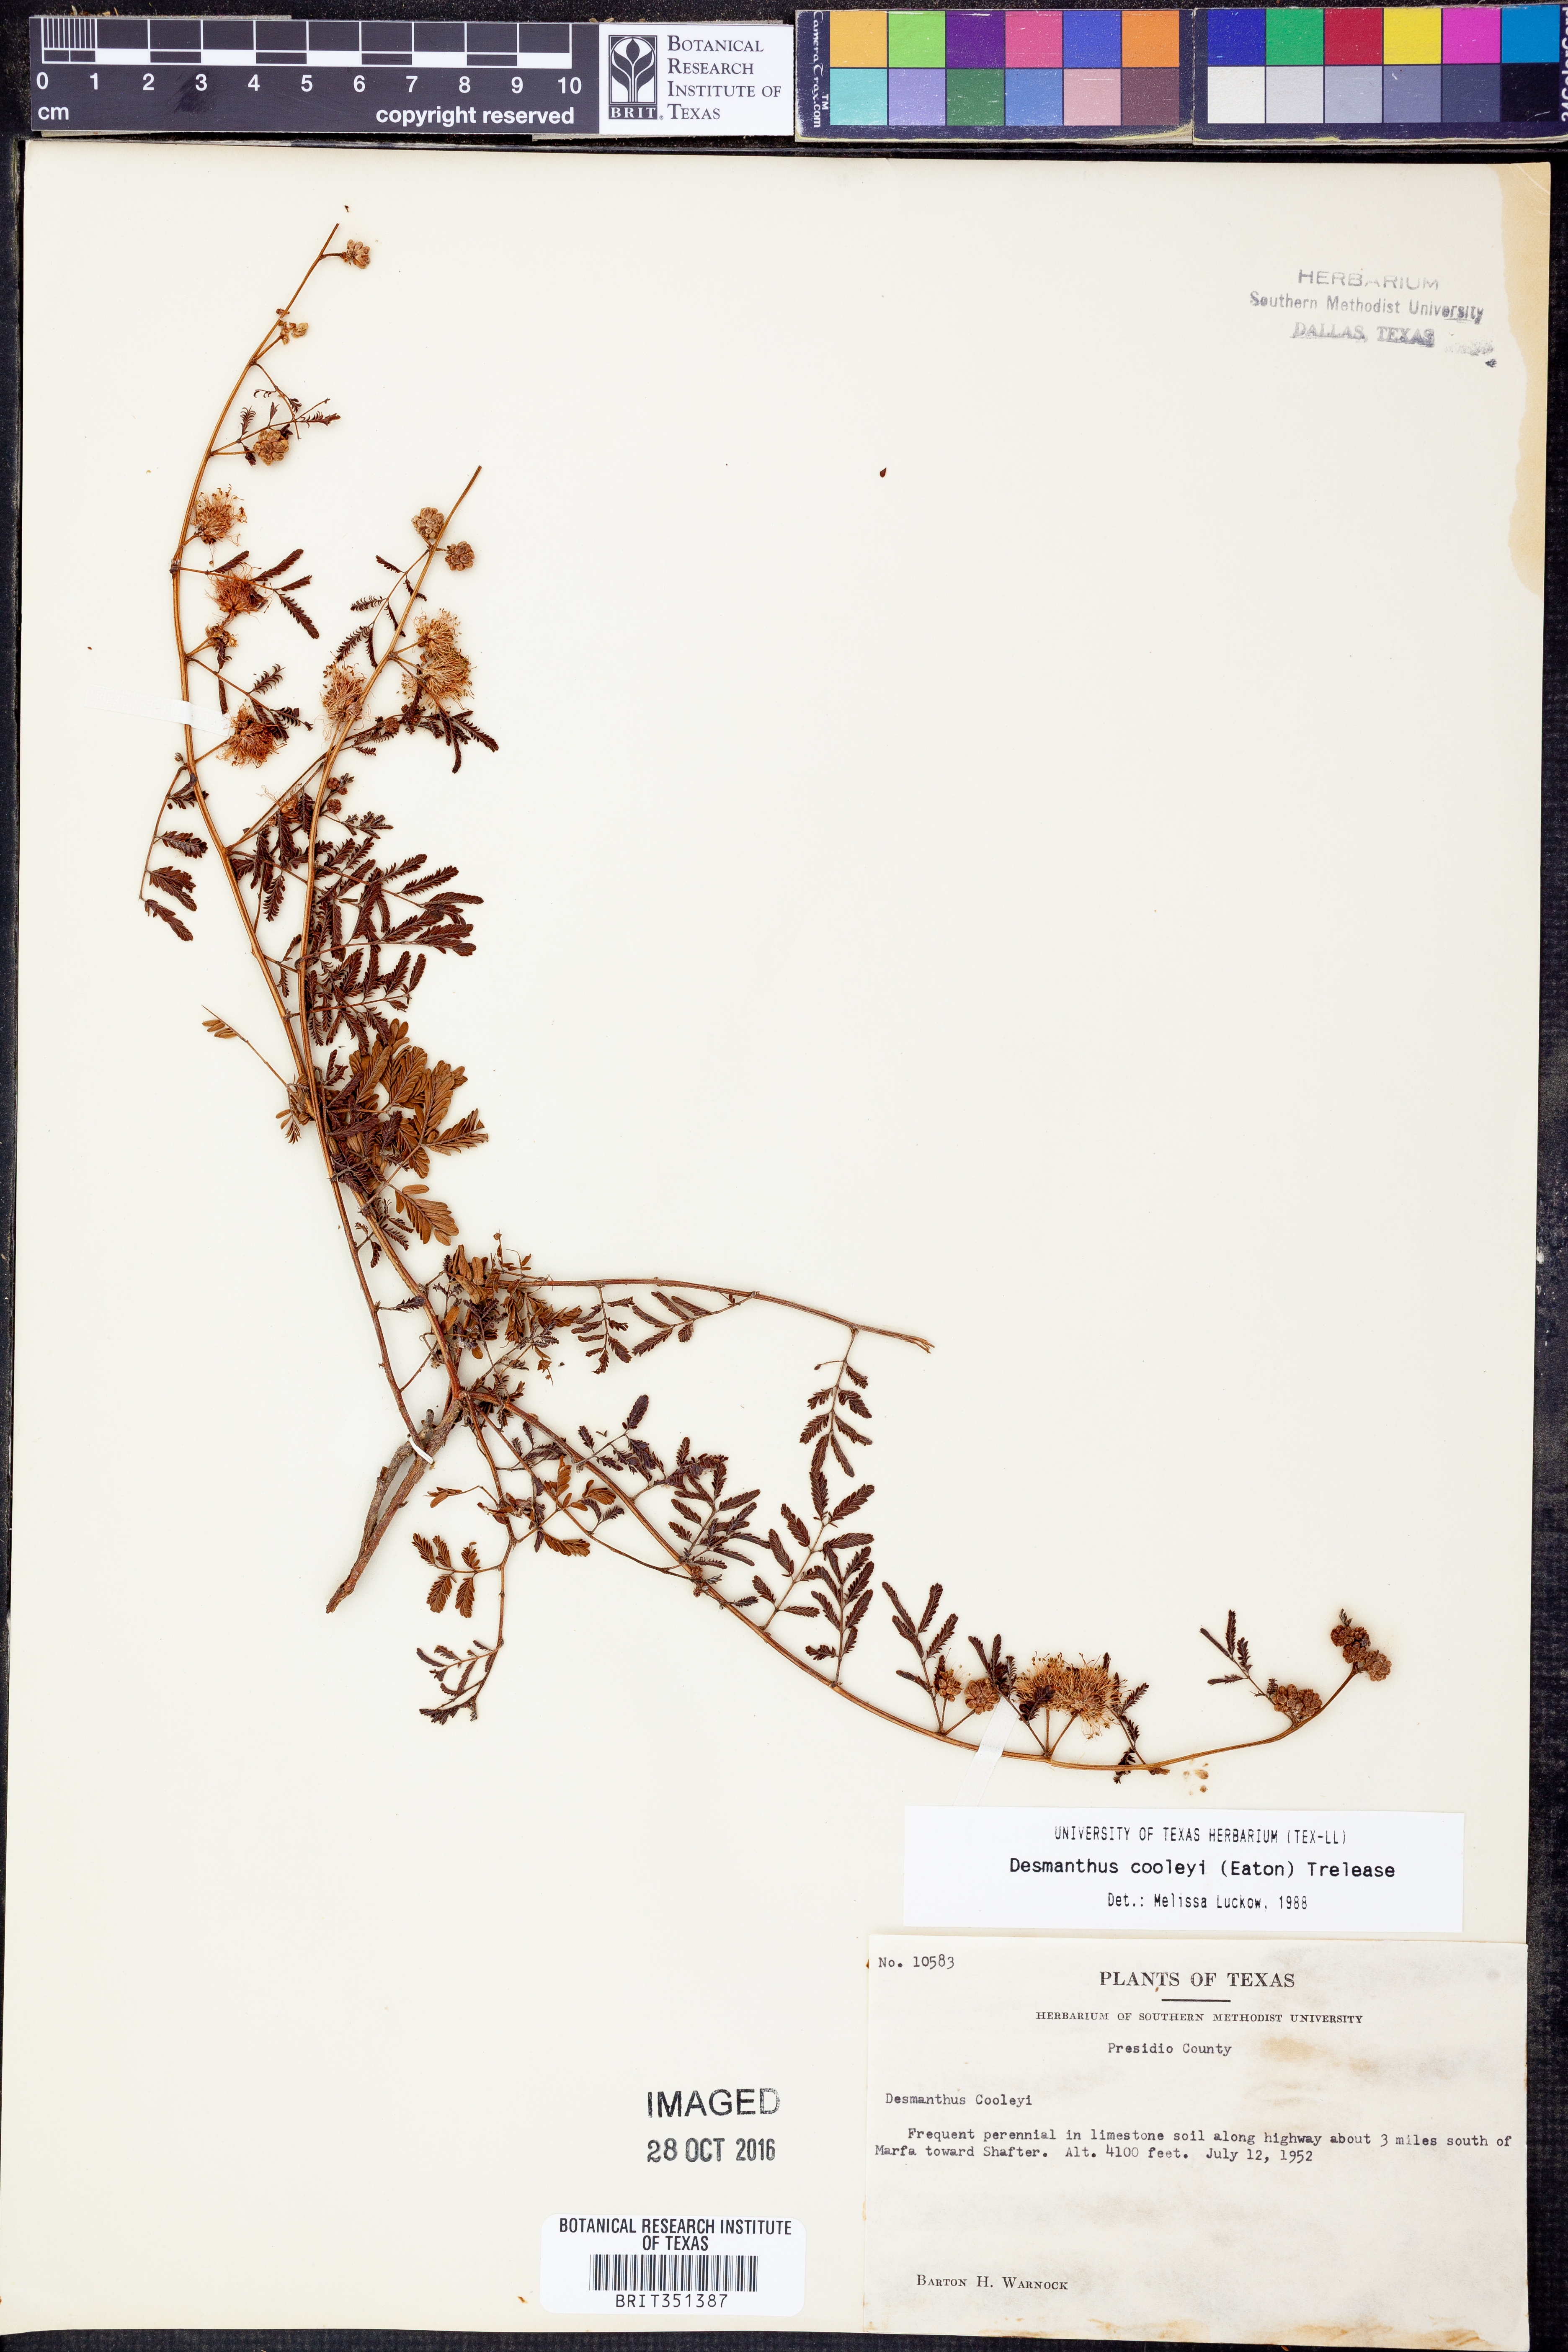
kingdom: Plantae
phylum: Tracheophyta
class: Magnoliopsida
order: Fabales
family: Fabaceae
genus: Desmanthus
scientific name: Desmanthus cooleyi
